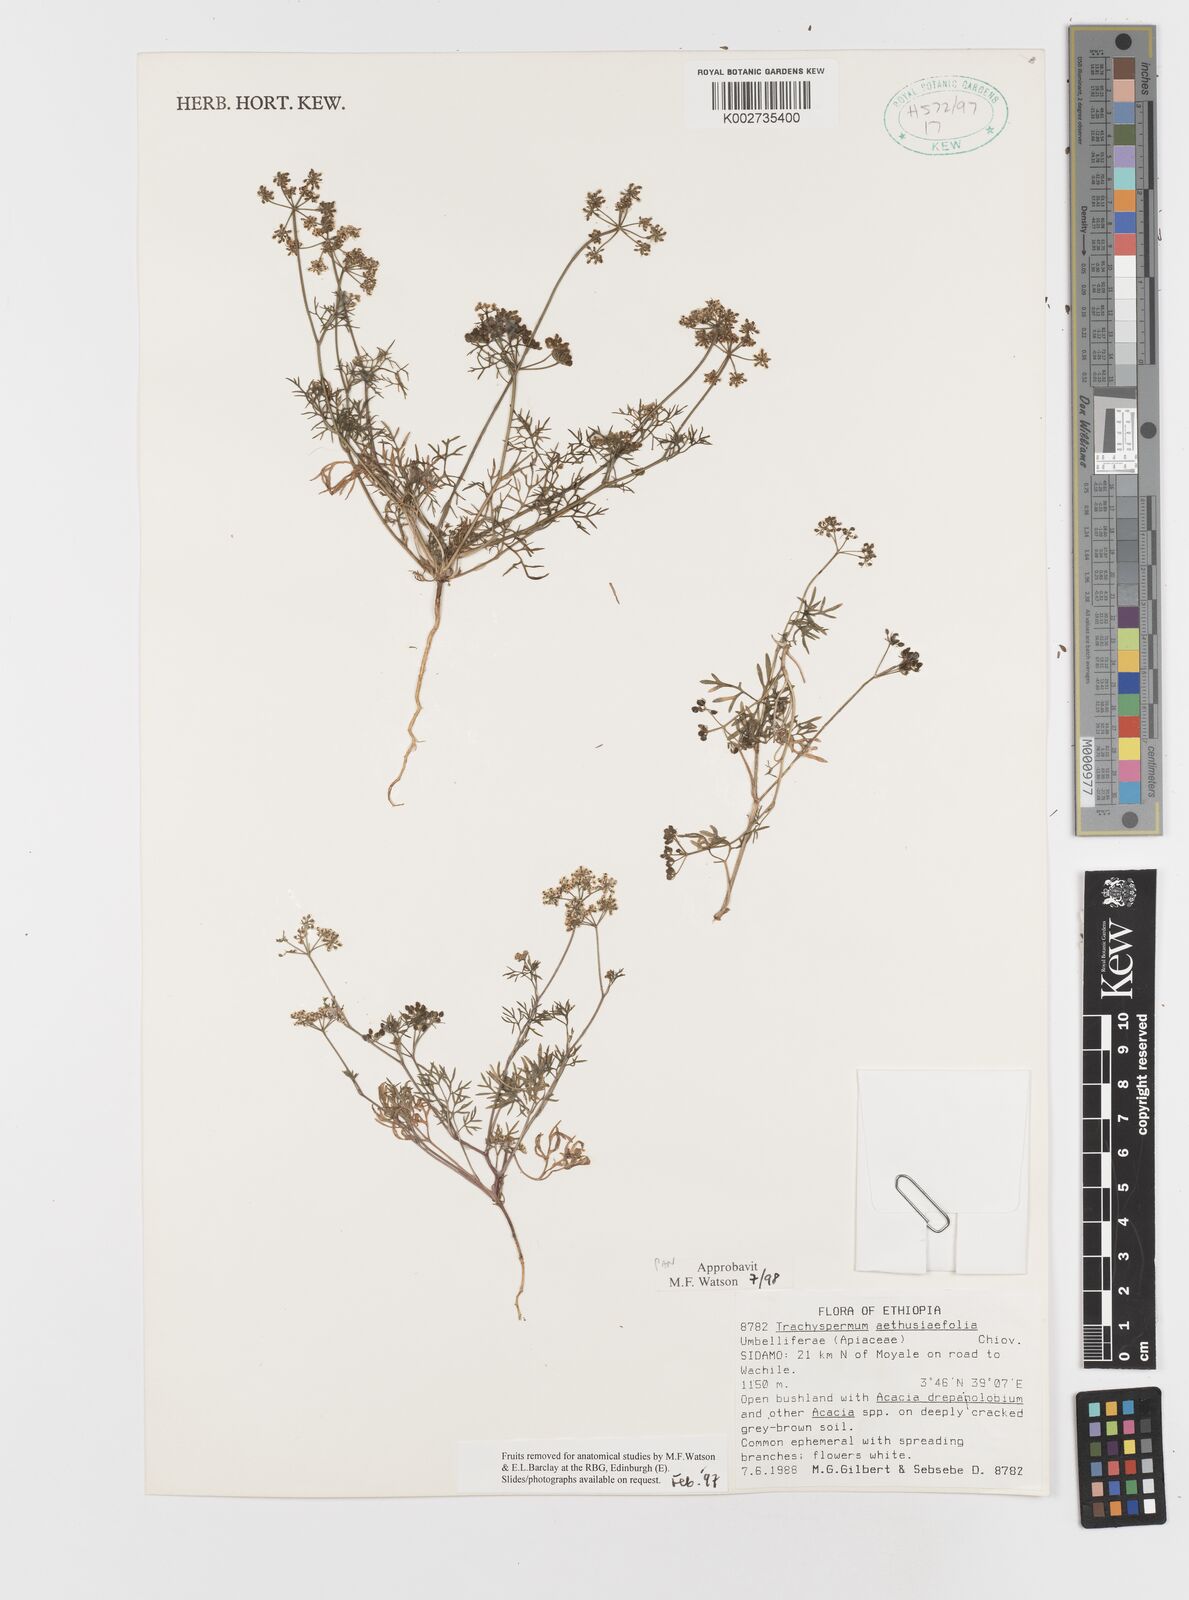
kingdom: Plantae
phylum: Tracheophyta
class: Magnoliopsida
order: Apiales
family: Apiaceae
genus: Trachyspermum
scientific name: Trachyspermum pimpinelloides
